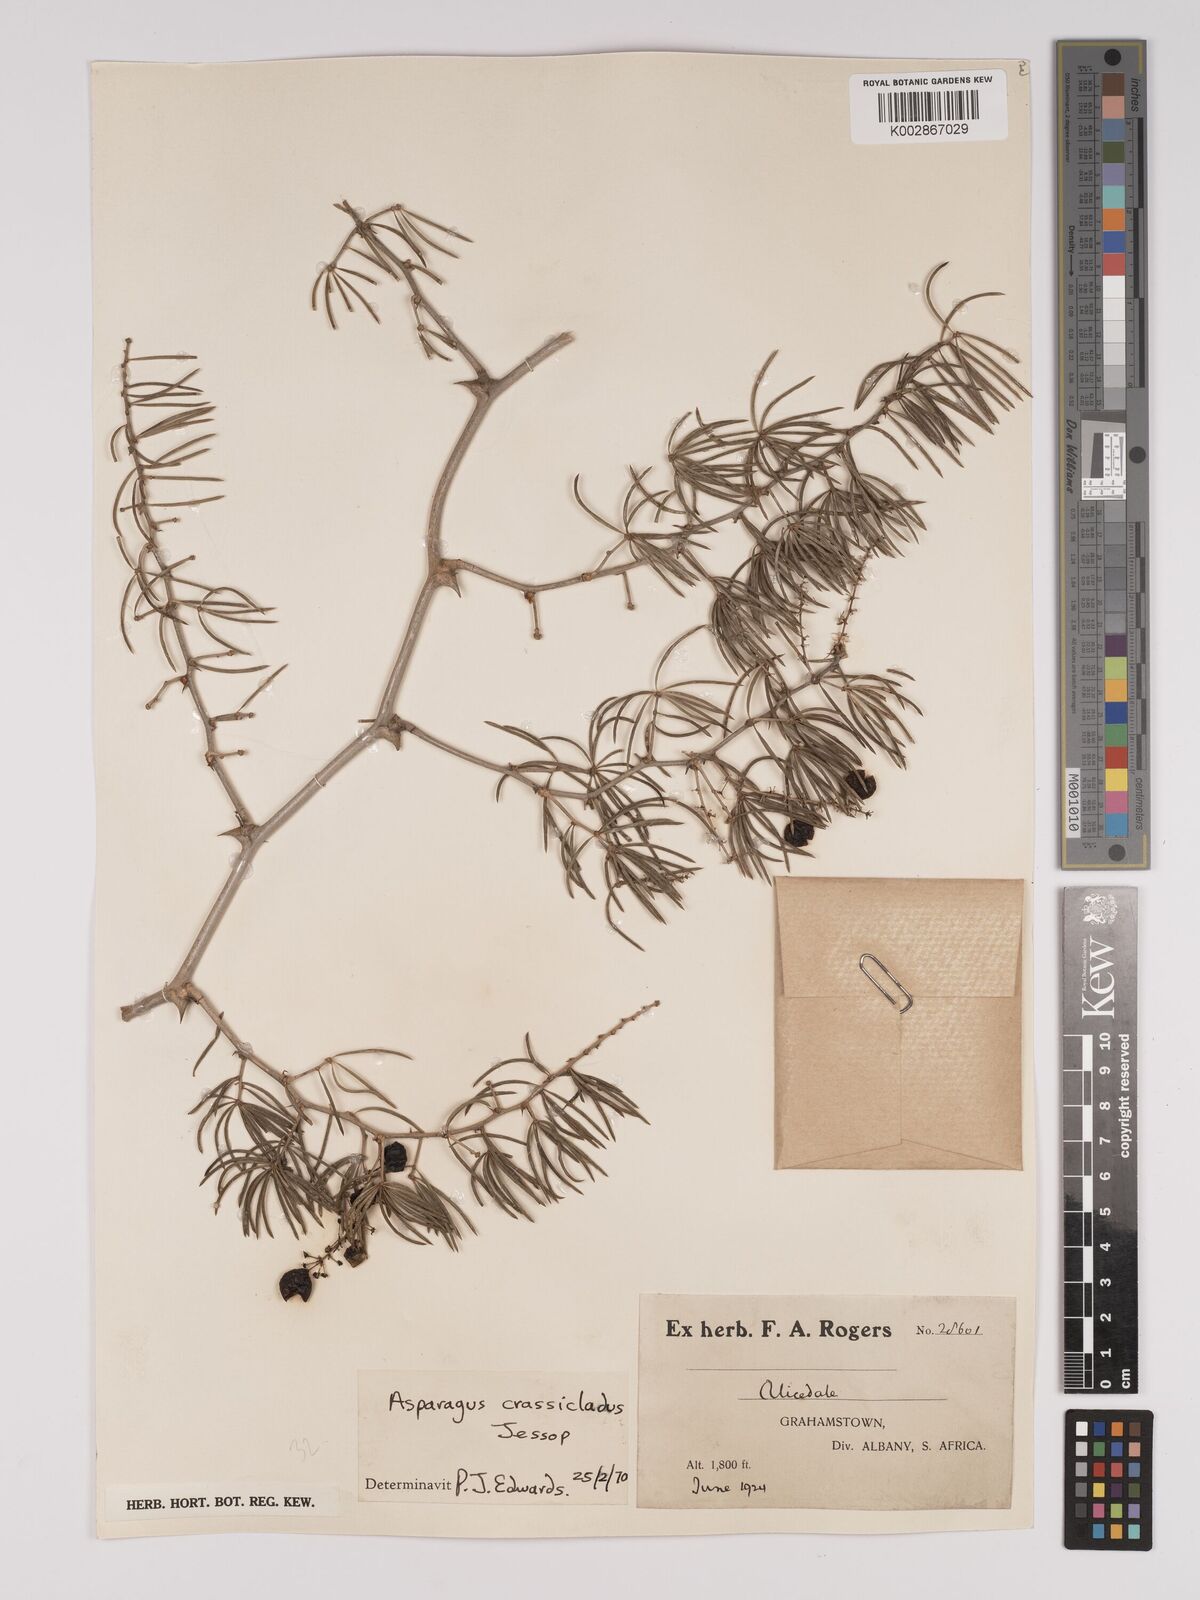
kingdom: Plantae
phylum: Tracheophyta
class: Liliopsida
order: Asparagales
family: Asparagaceae
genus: Asparagus
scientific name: Asparagus crassicladus
